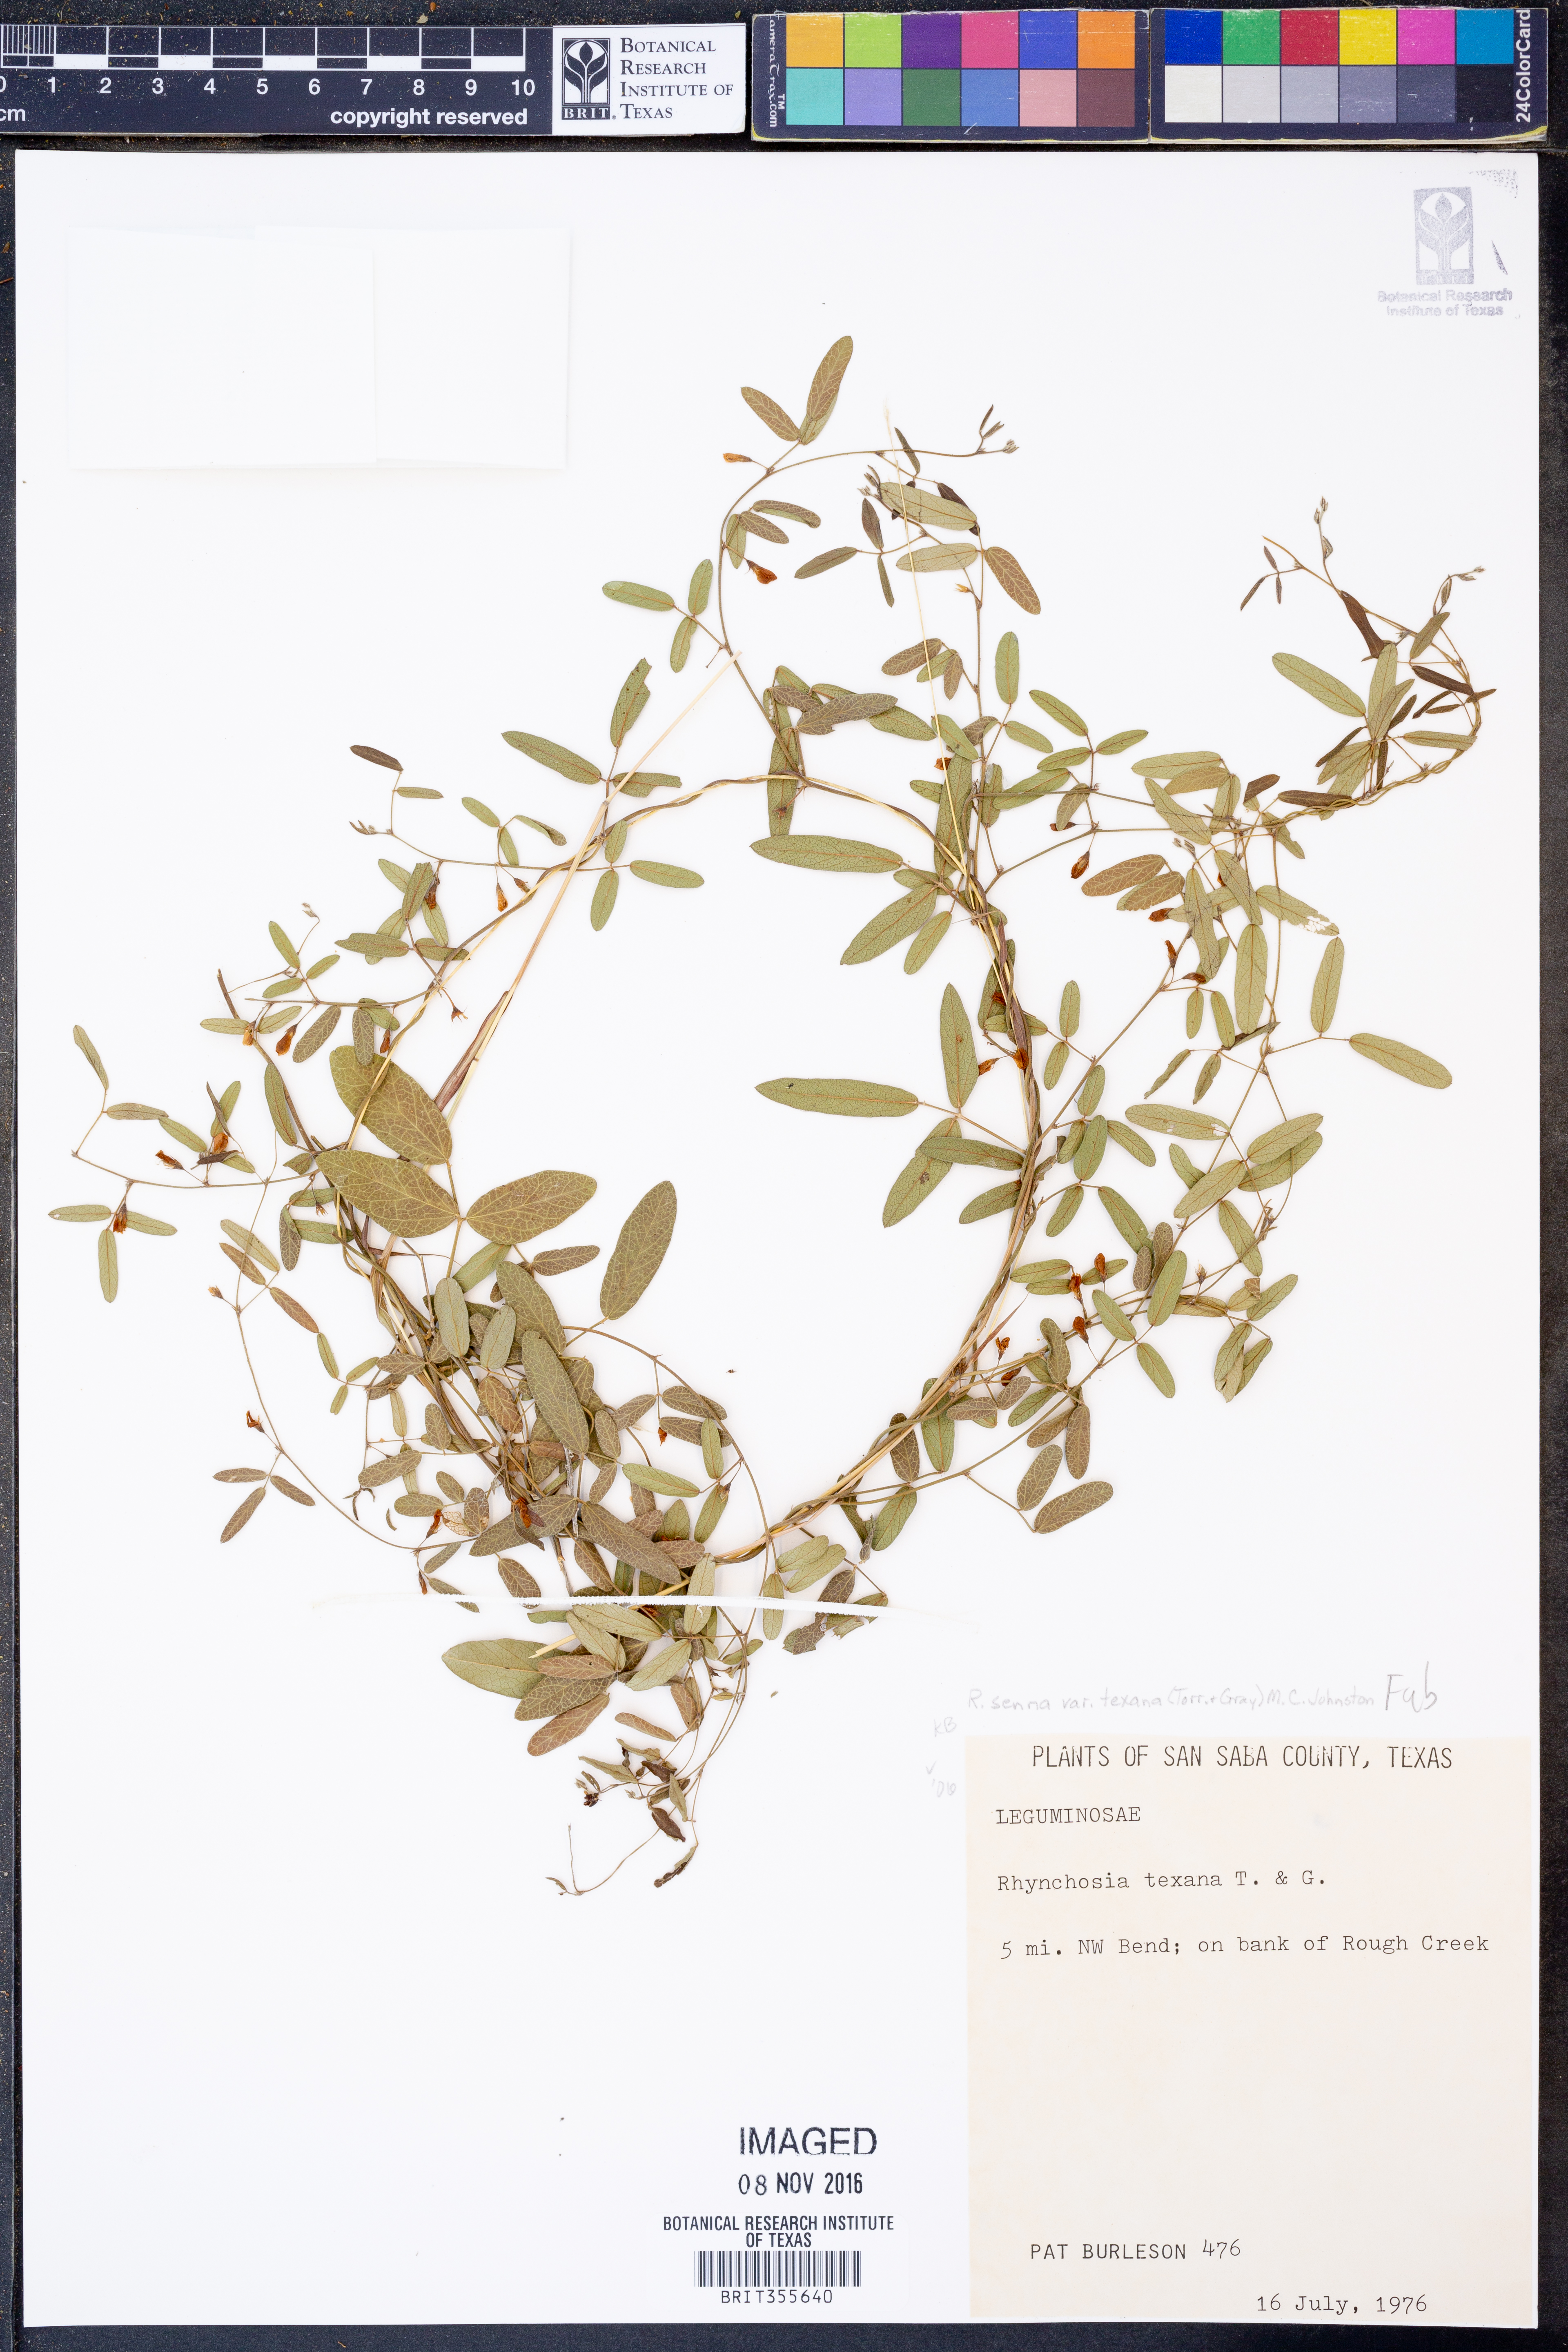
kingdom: Plantae
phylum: Tracheophyta
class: Magnoliopsida
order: Fabales
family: Fabaceae
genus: Rhynchosia
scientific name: Rhynchosia senna
